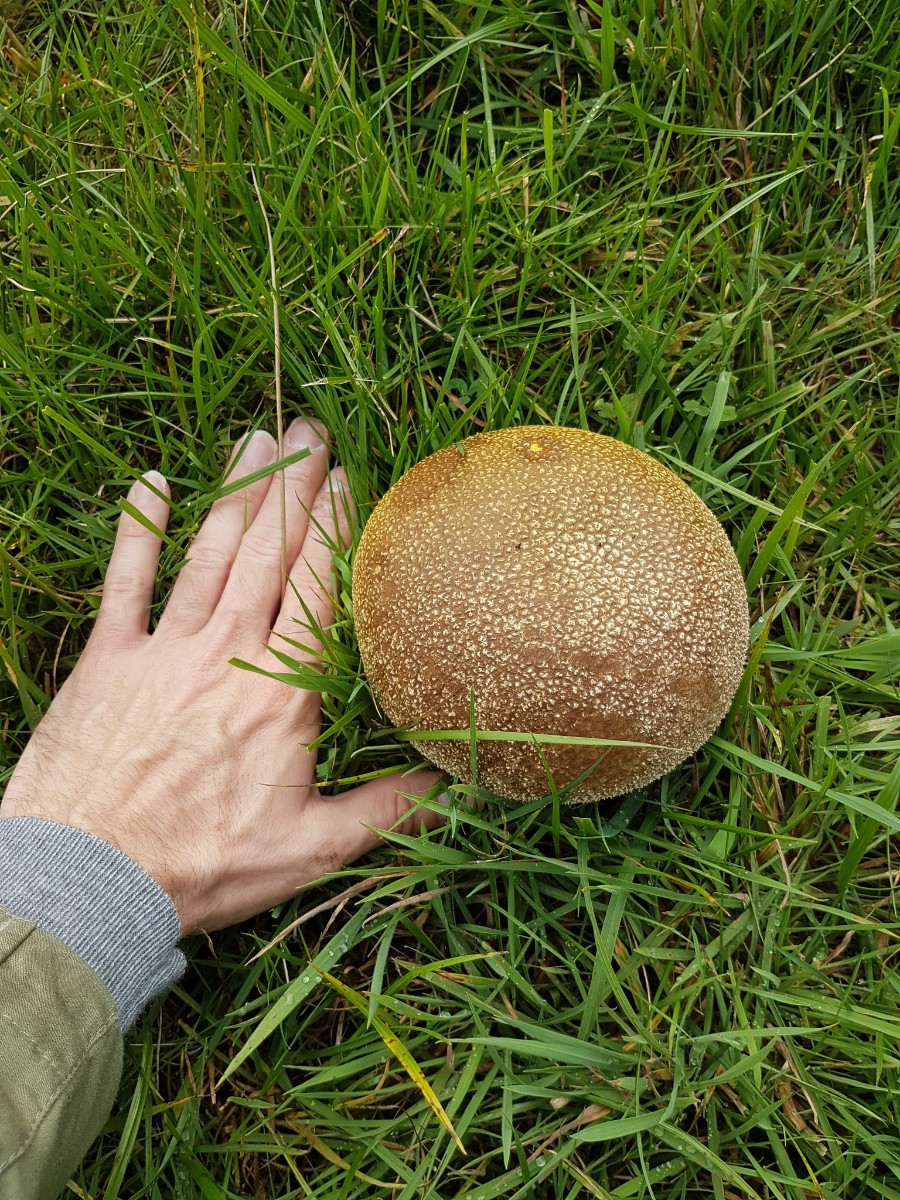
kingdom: Fungi
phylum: Basidiomycota
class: Agaricomycetes
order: Agaricales
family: Lycoperdaceae
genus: Bovistella
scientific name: Bovistella utriformis
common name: skællet støvbold
